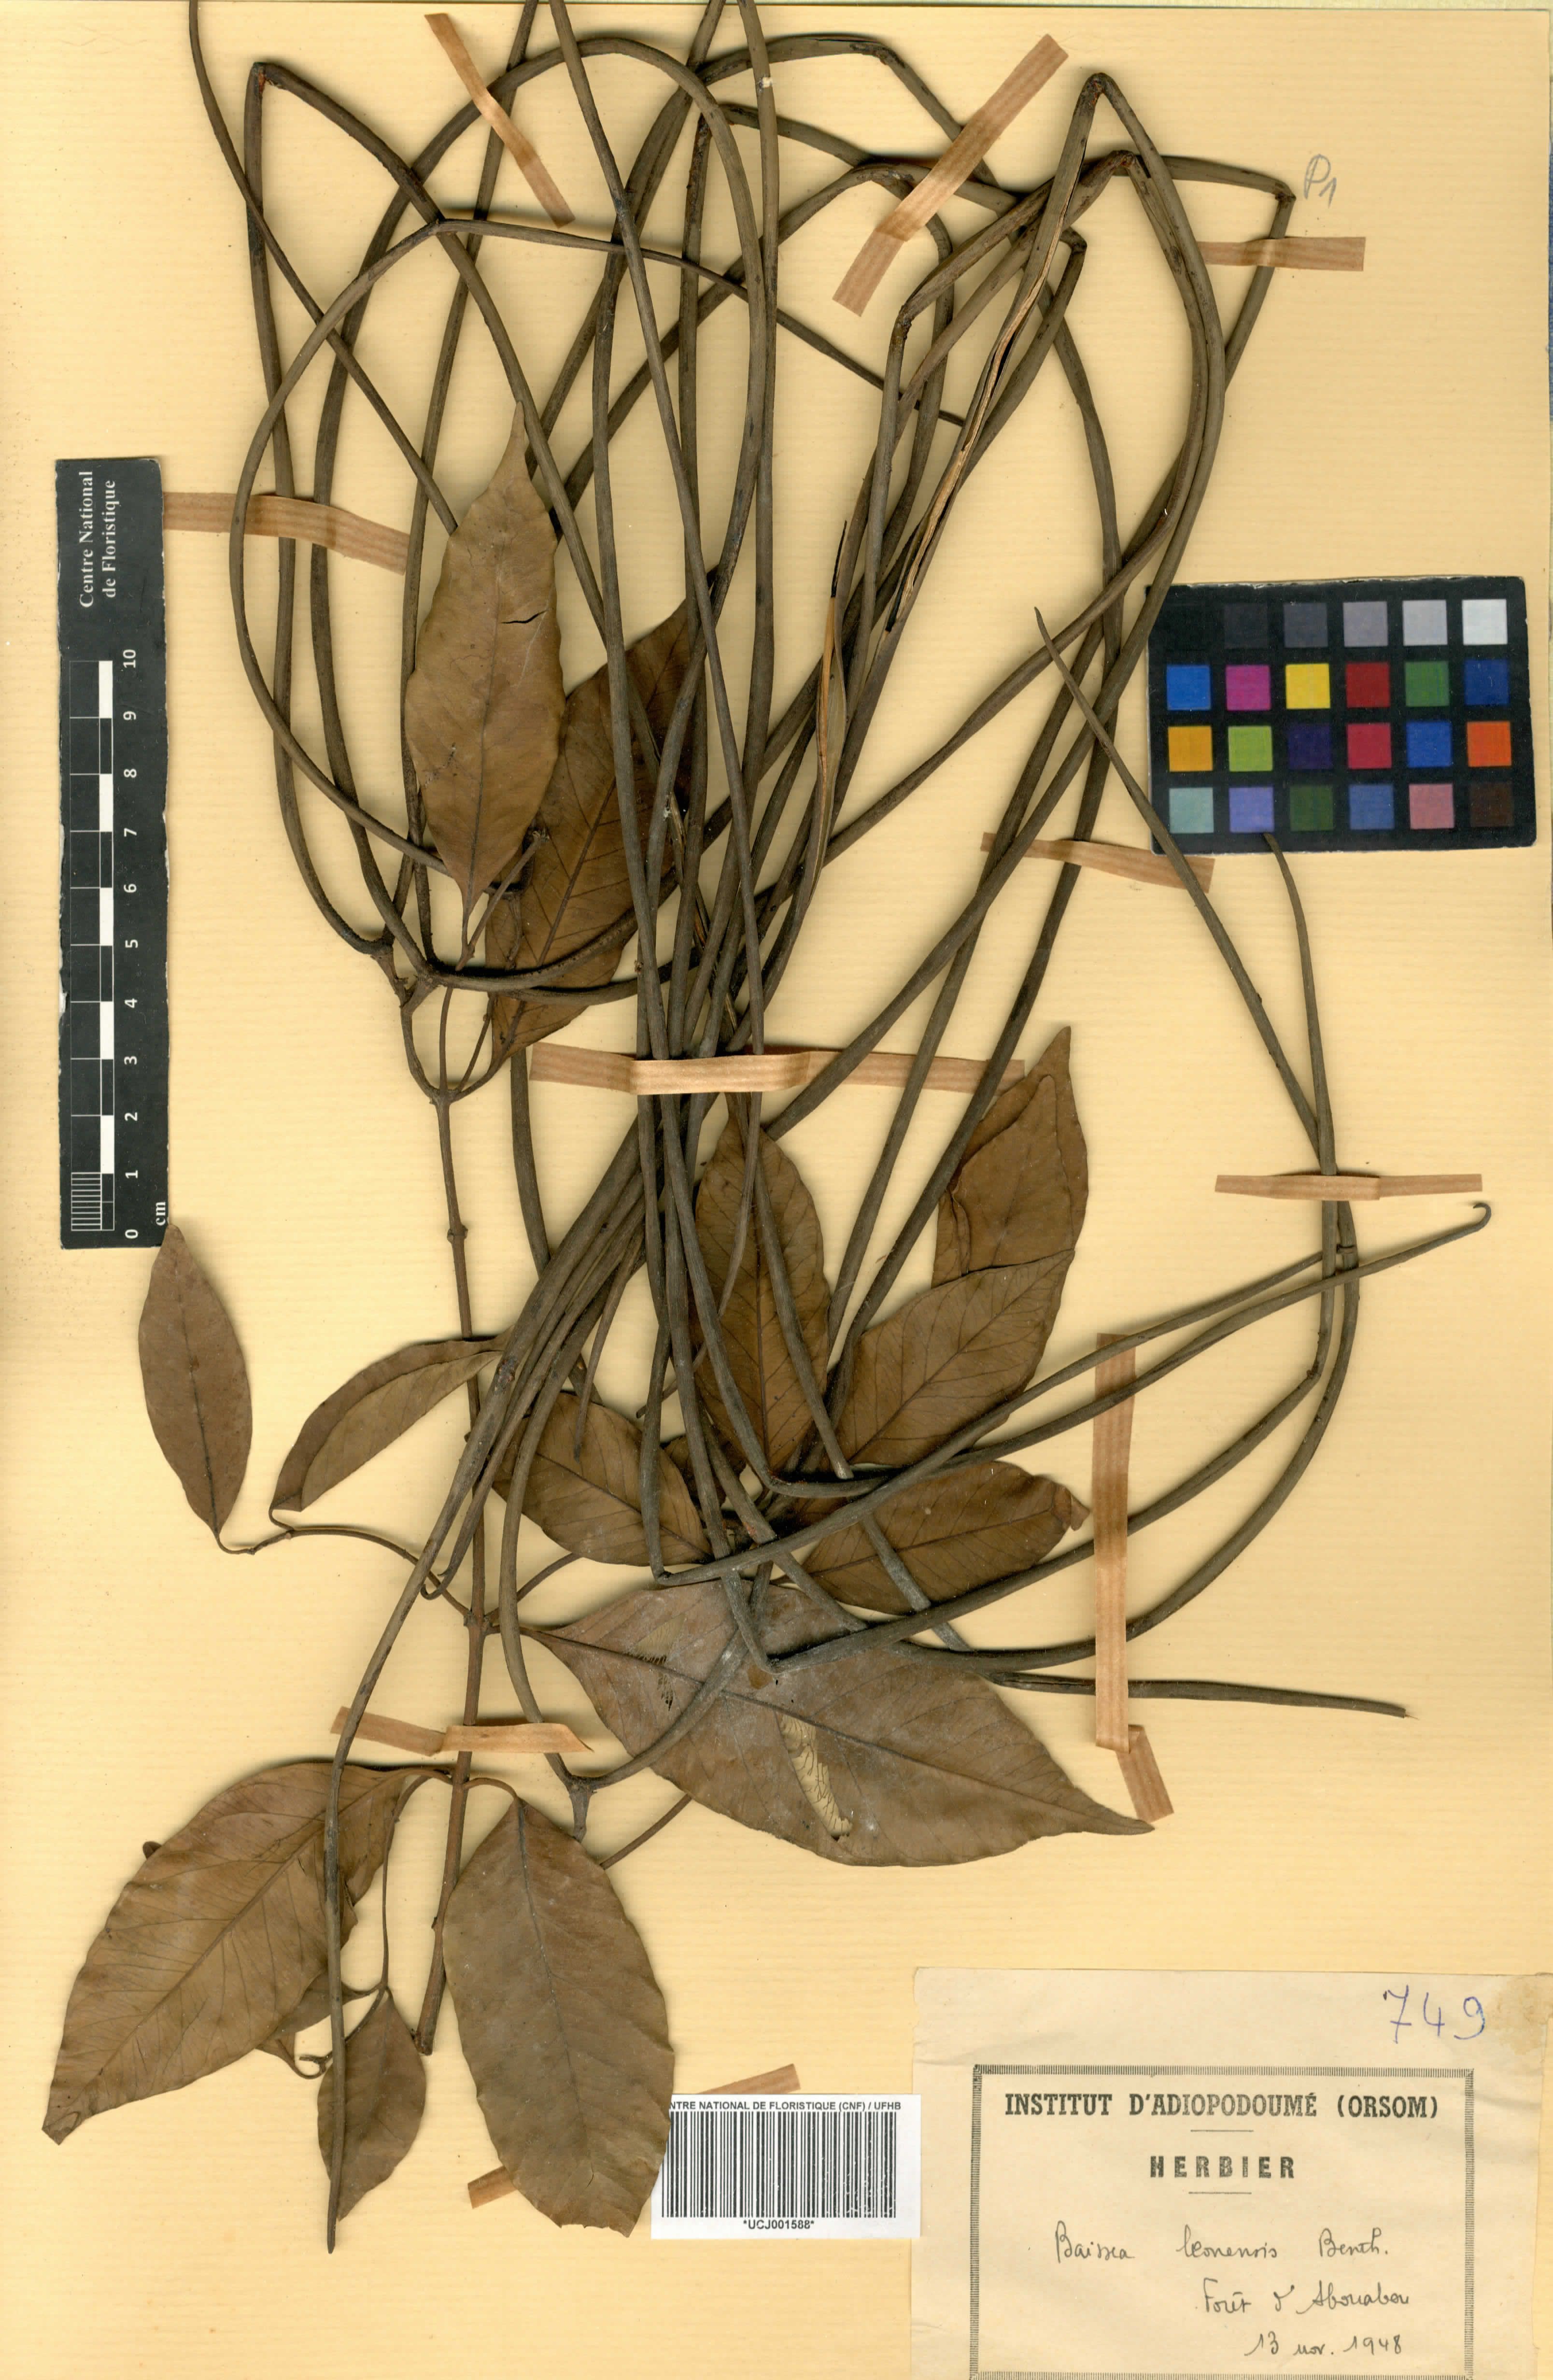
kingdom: Plantae
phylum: Tracheophyta
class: Magnoliopsida
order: Gentianales
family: Apocynaceae
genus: Baissea
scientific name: Baissea leonensis
